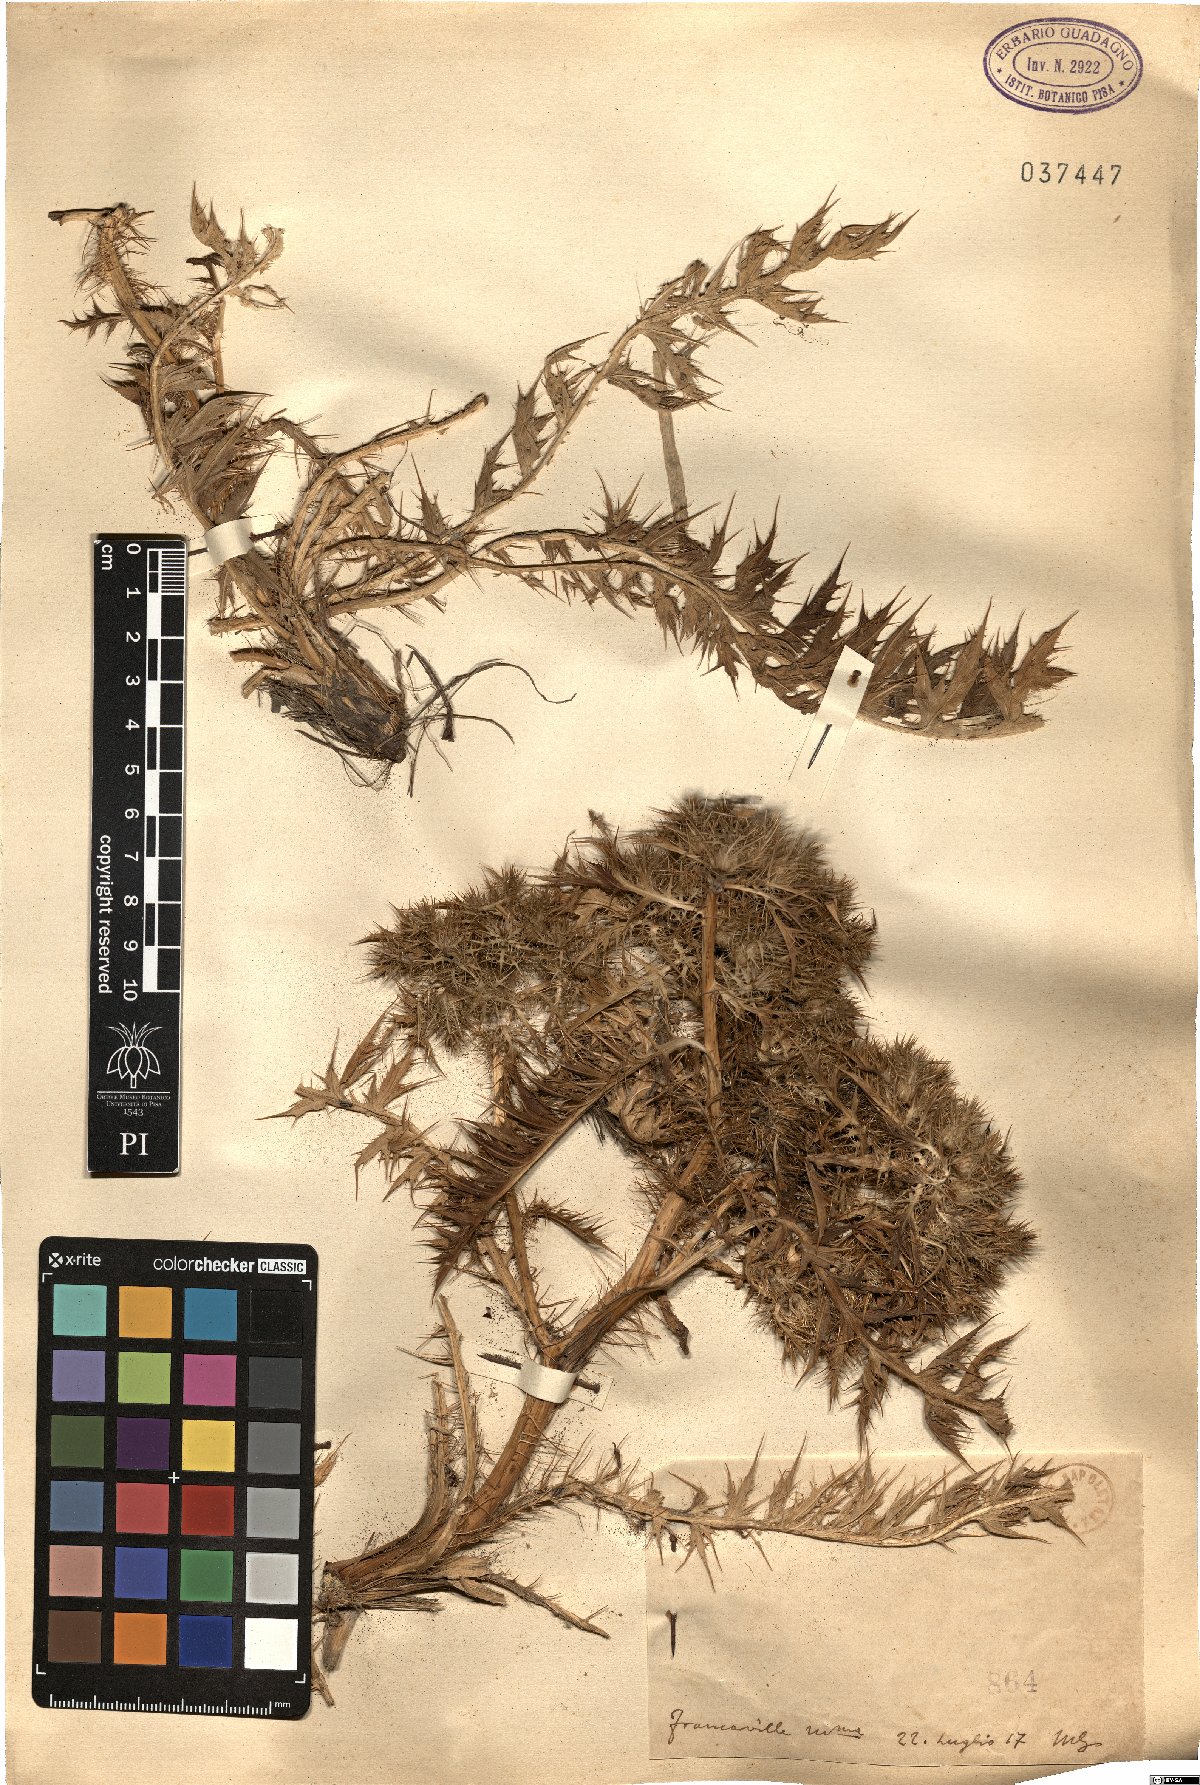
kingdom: Plantae
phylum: Tracheophyta
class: Magnoliopsida
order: Asterales
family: Asteraceae
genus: Cardopatium
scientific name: Cardopatium
